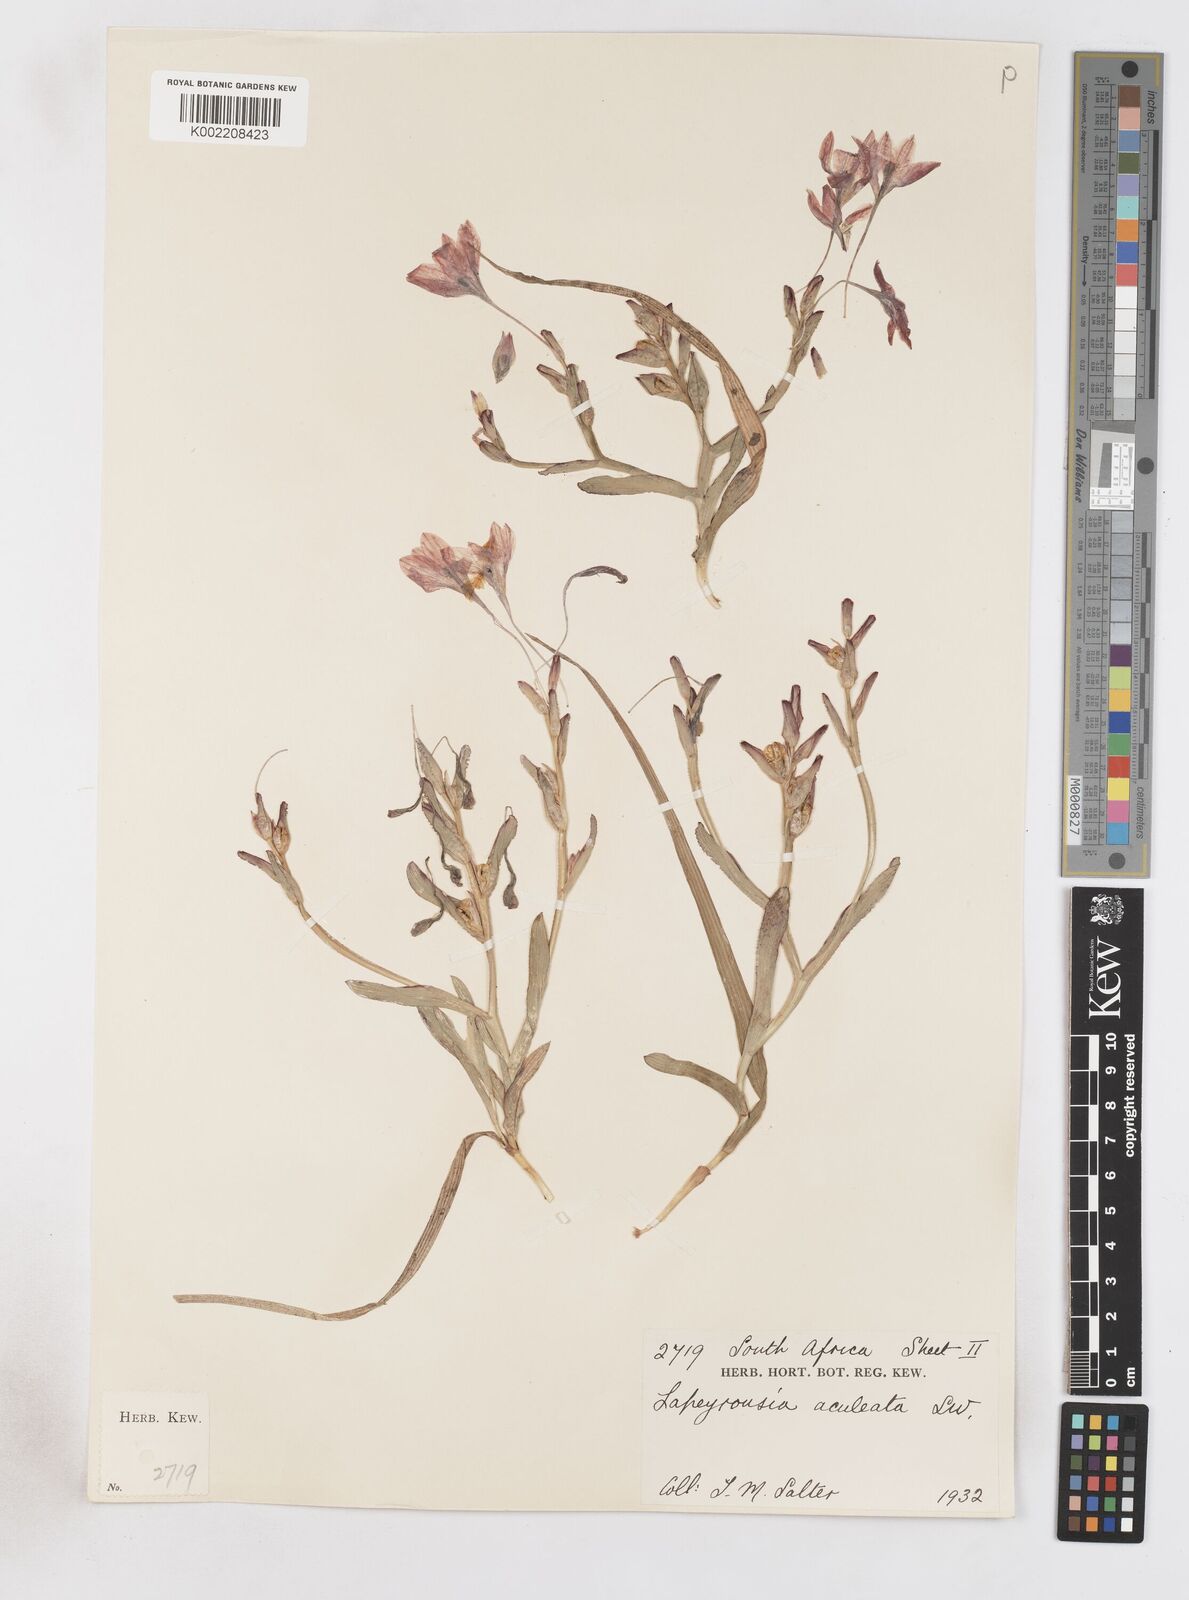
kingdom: Plantae
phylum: Tracheophyta
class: Liliopsida
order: Asparagales
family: Iridaceae
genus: Lapeirousia
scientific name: Lapeirousia fabricii
